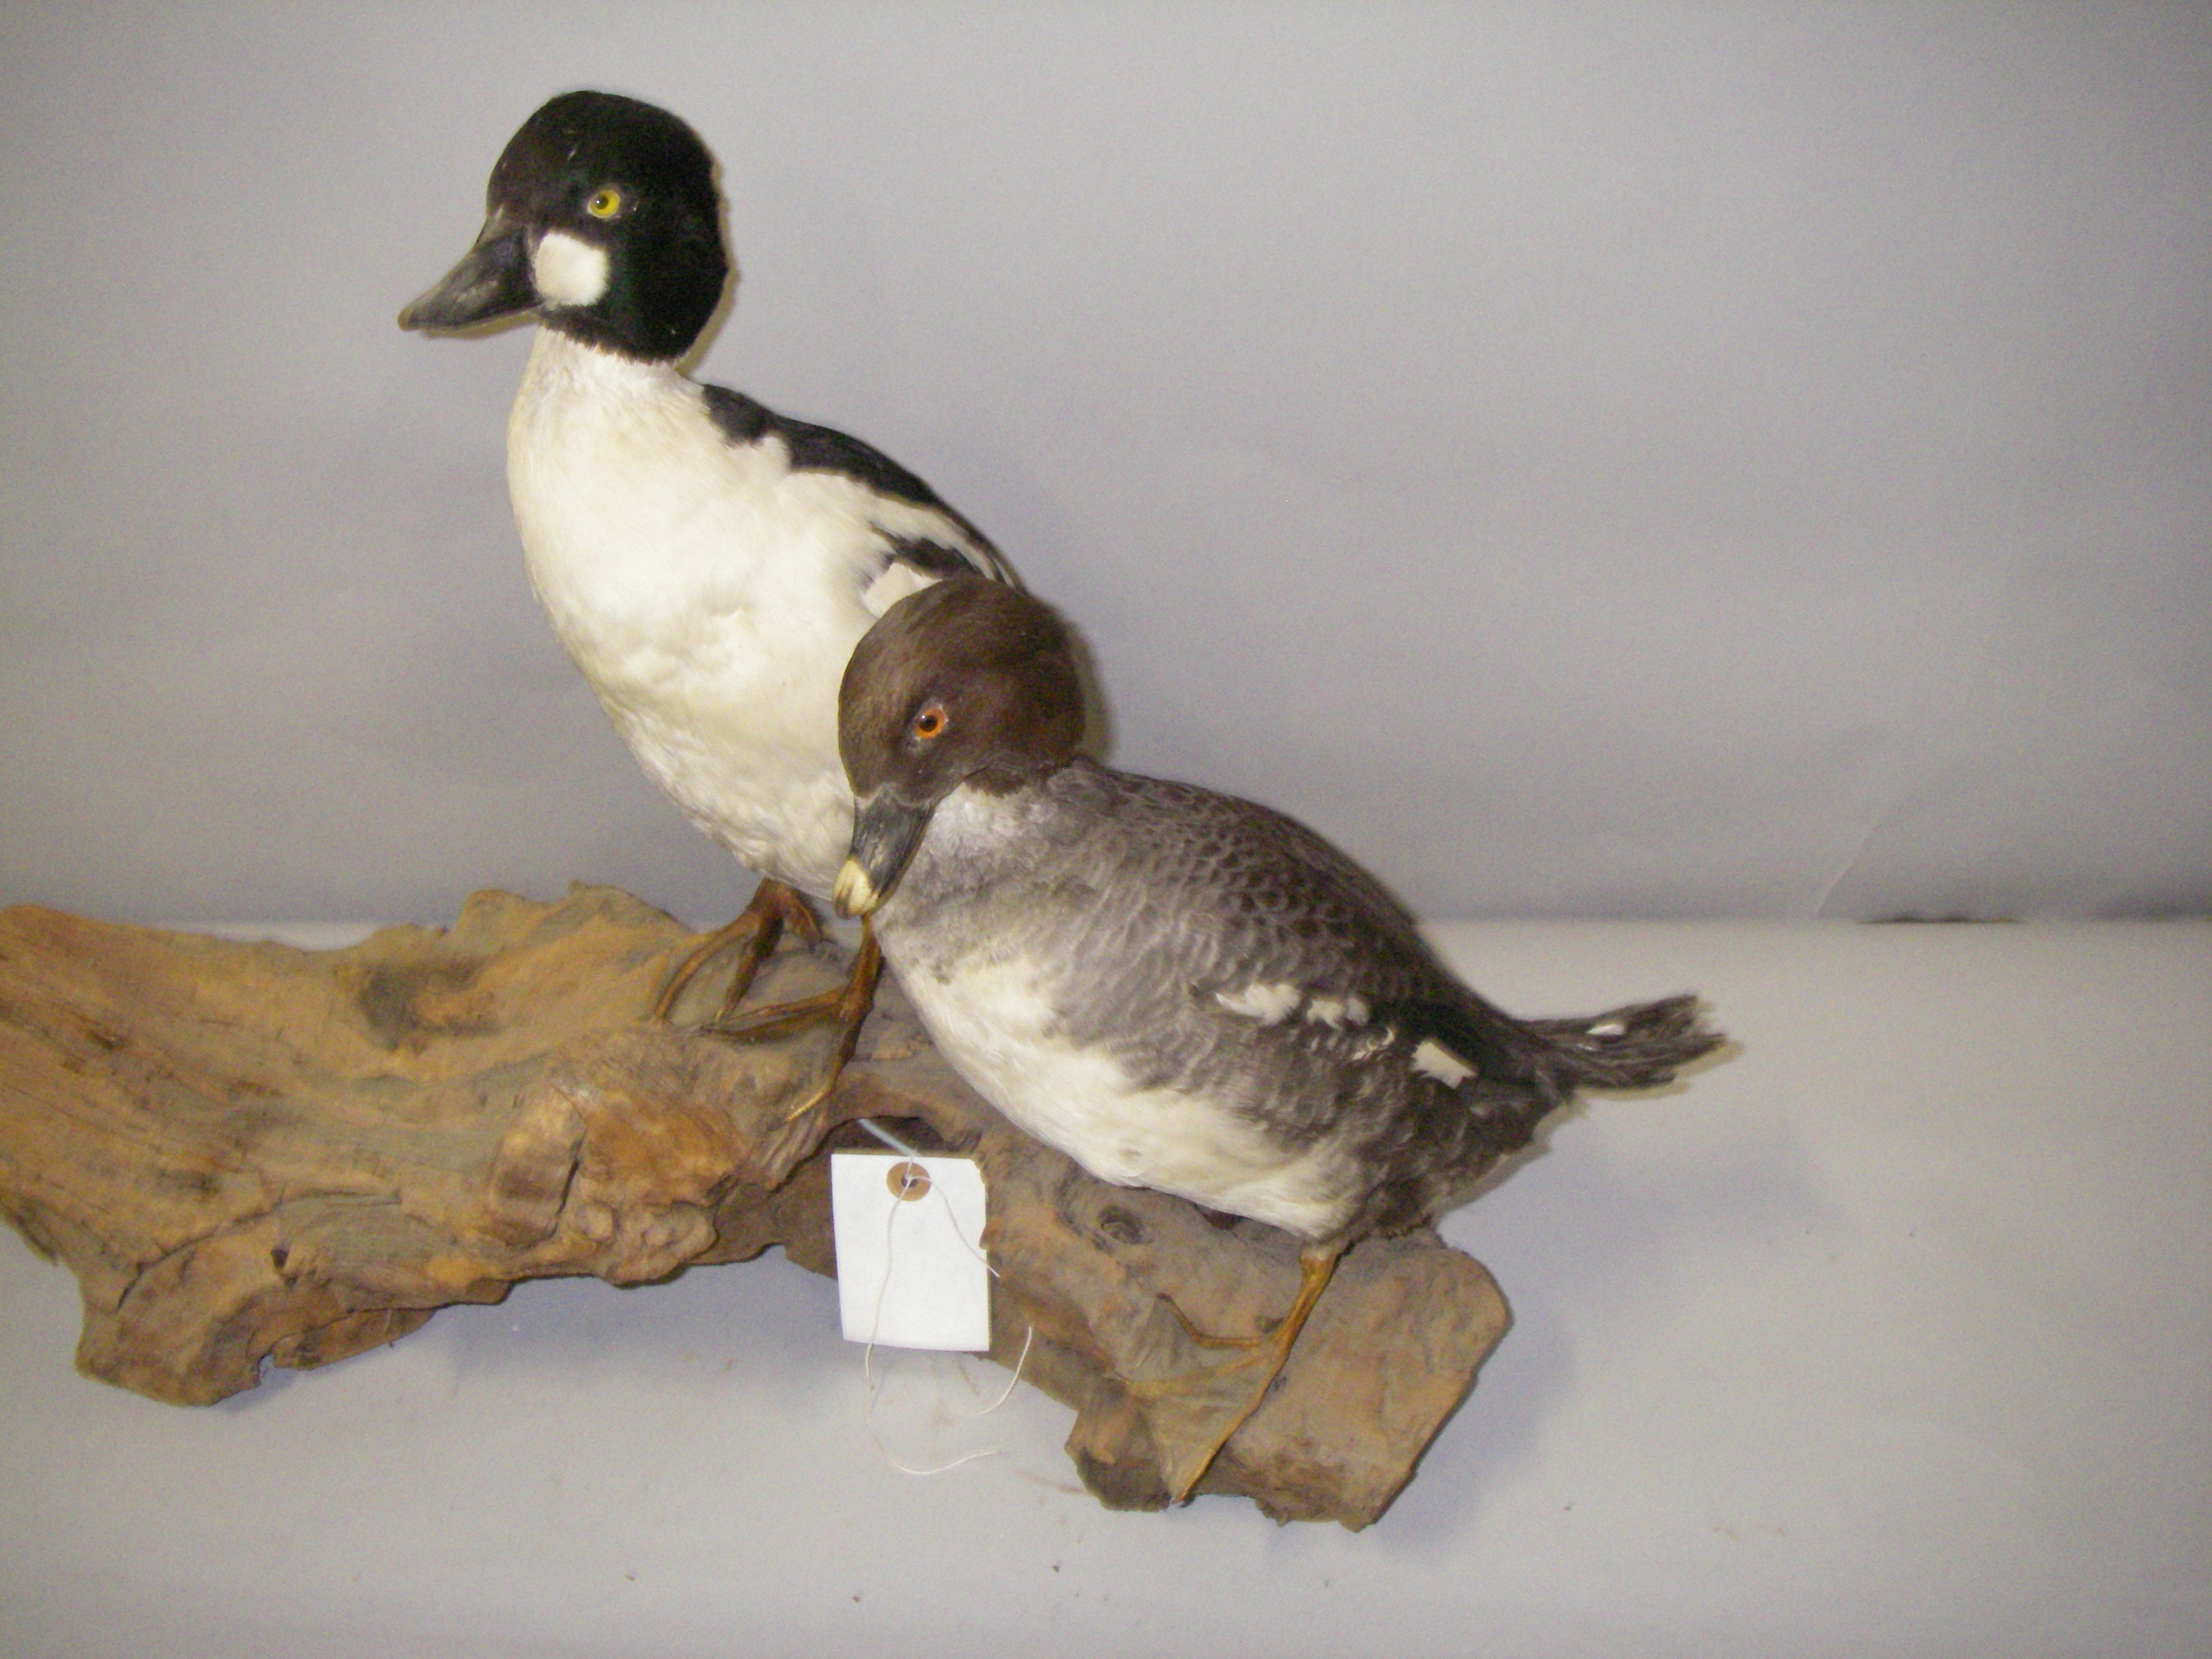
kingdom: Animalia
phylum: Chordata
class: Aves
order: Anseriformes
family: Anatidae
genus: Bucephala
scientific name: Bucephala clangula
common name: Common goldeneye
